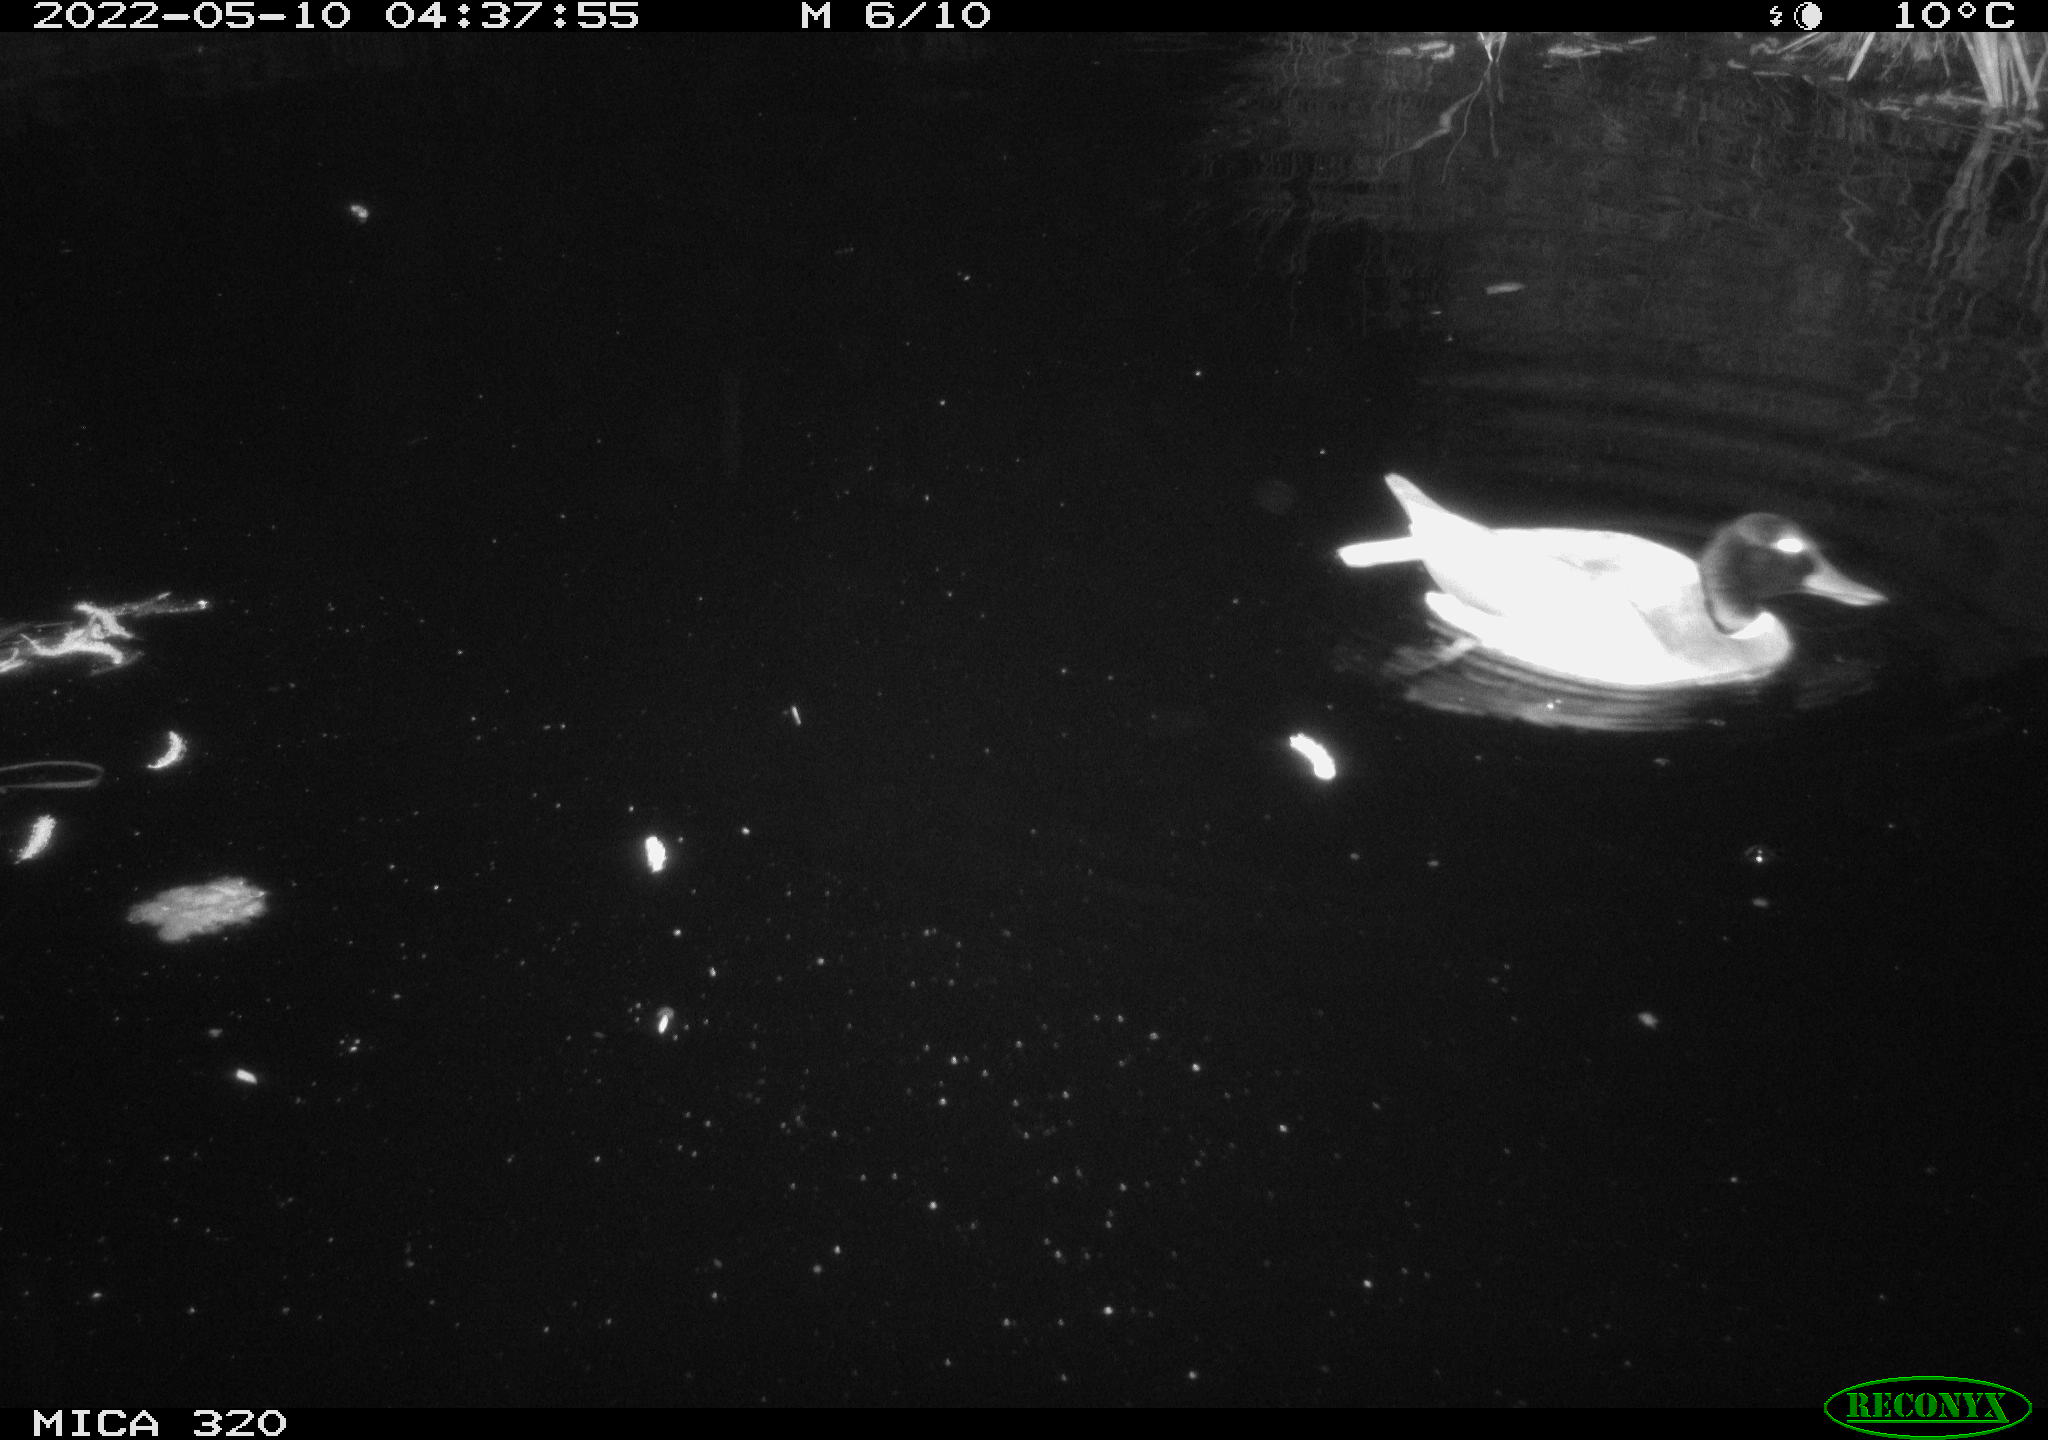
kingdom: Animalia
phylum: Chordata
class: Aves
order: Anseriformes
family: Anatidae
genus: Mareca
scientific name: Mareca strepera
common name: Gadwall
